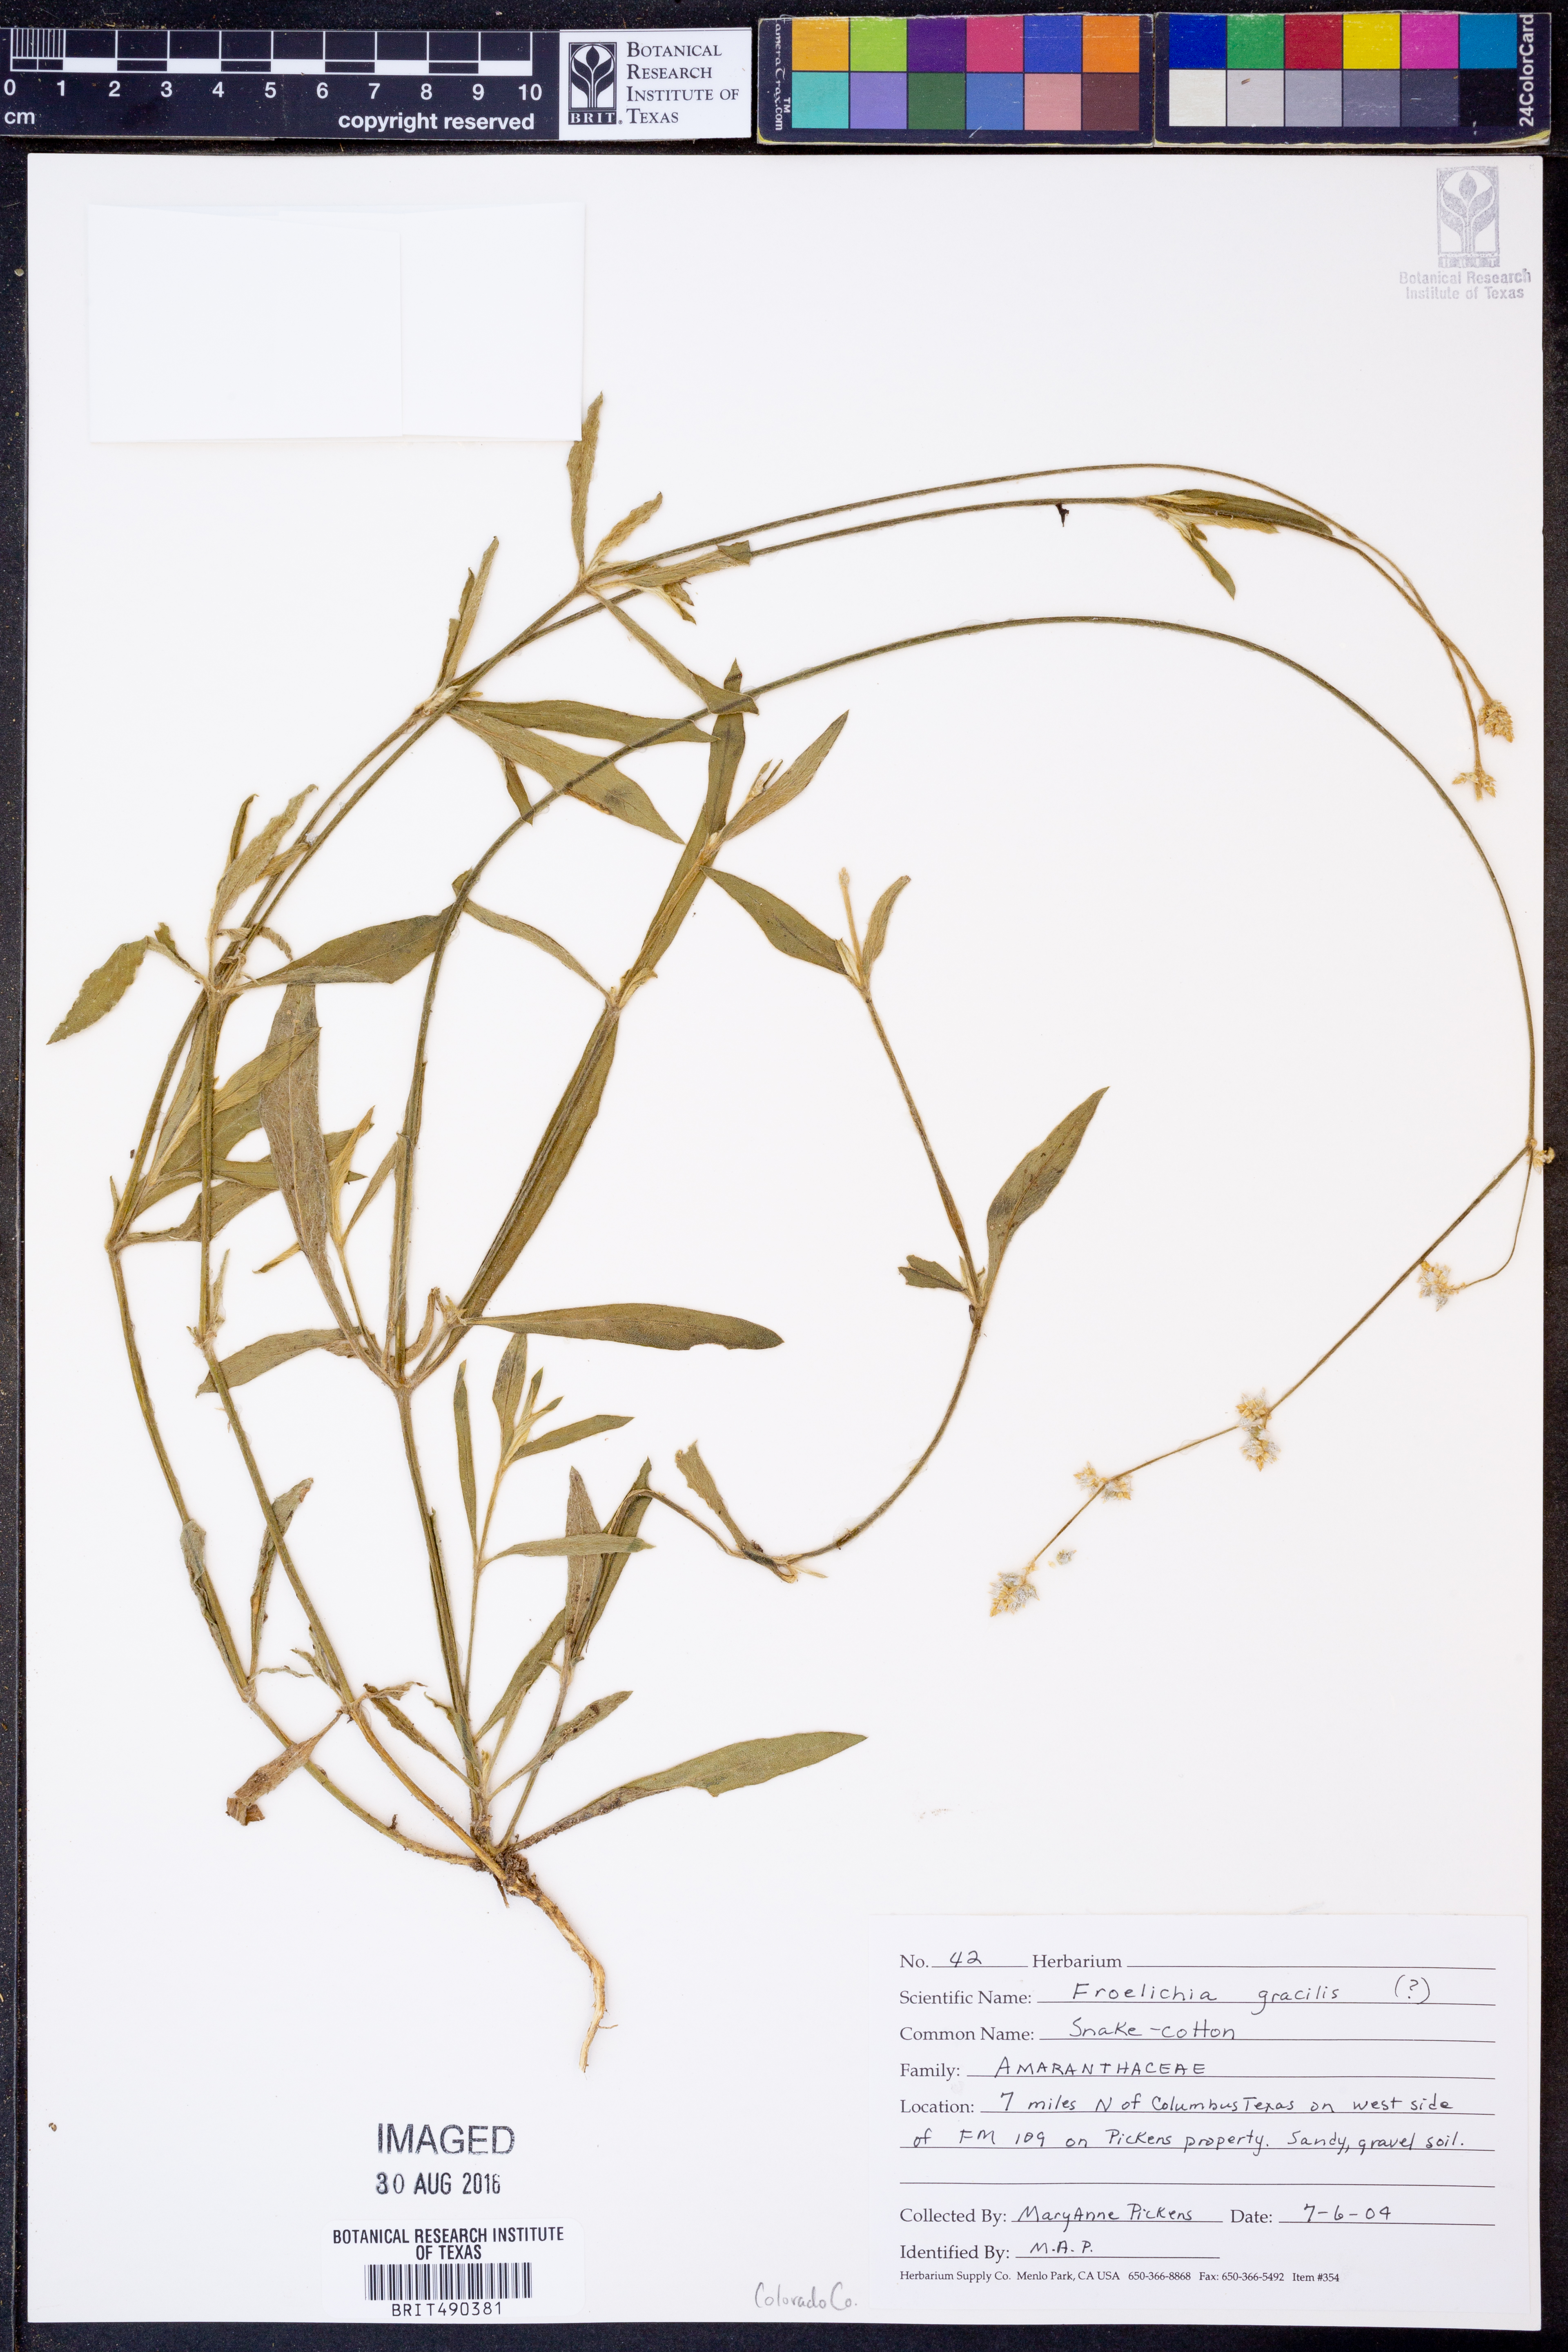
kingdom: Plantae
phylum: Tracheophyta
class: Magnoliopsida
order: Caryophyllales
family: Amaranthaceae
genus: Froelichia
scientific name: Froelichia gracilis
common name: Slender cottonweed
